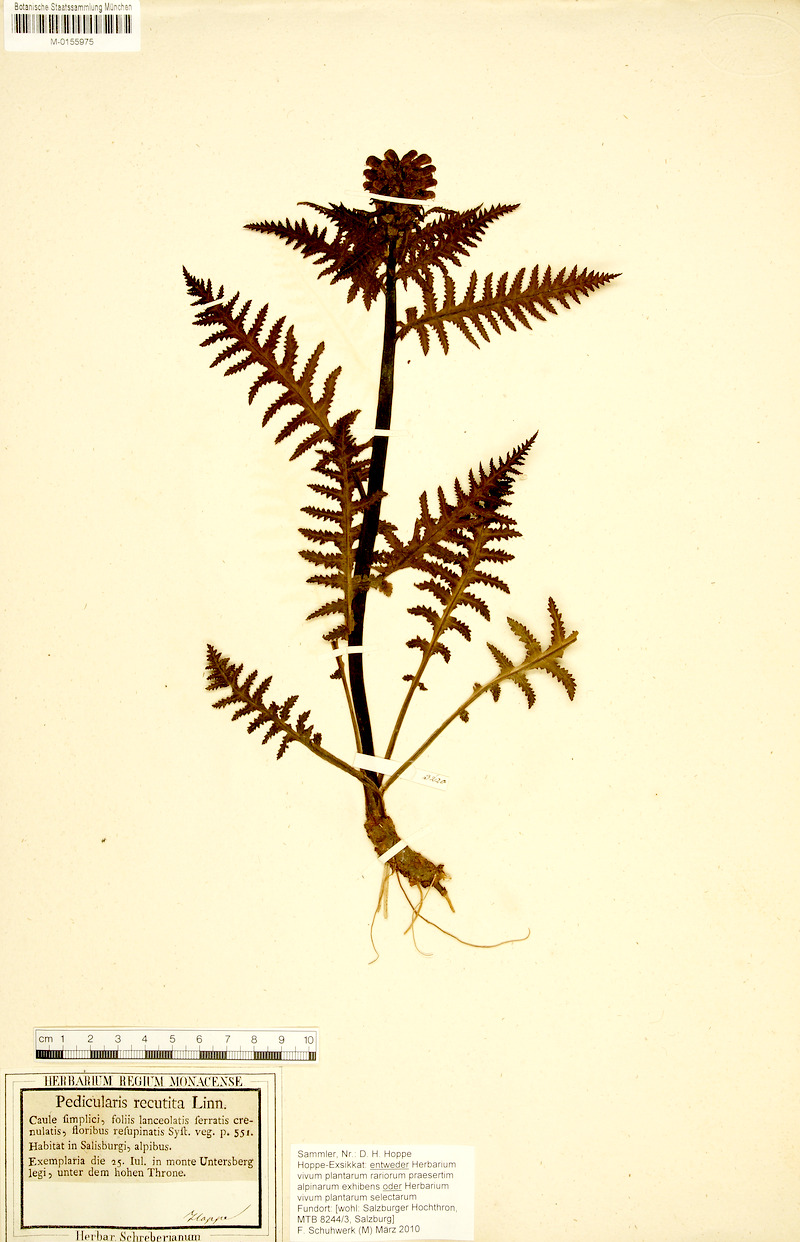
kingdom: Plantae
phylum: Tracheophyta
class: Magnoliopsida
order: Lamiales
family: Orobanchaceae
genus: Pedicularis
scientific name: Pedicularis recutita
